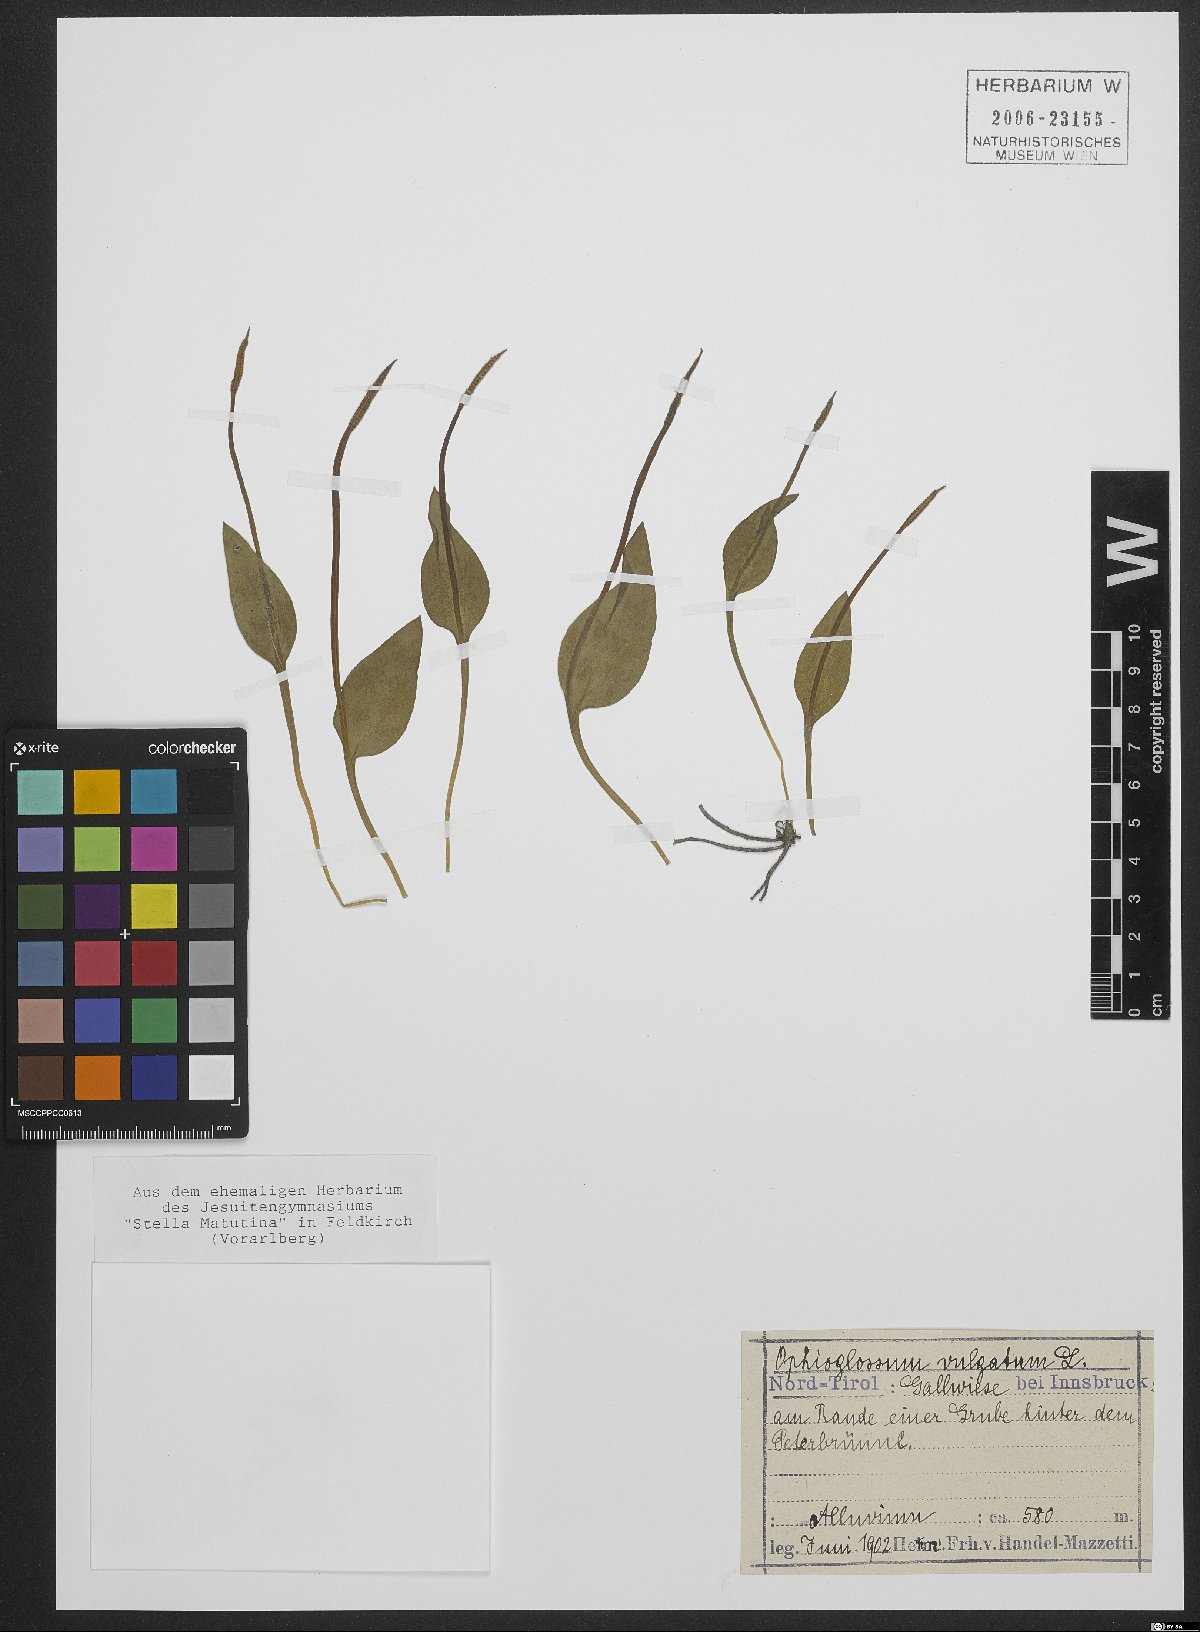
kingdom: Plantae
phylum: Tracheophyta
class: Polypodiopsida
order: Ophioglossales
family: Ophioglossaceae
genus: Ophioglossum
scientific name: Ophioglossum vulgatum
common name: Adder's-tongue
